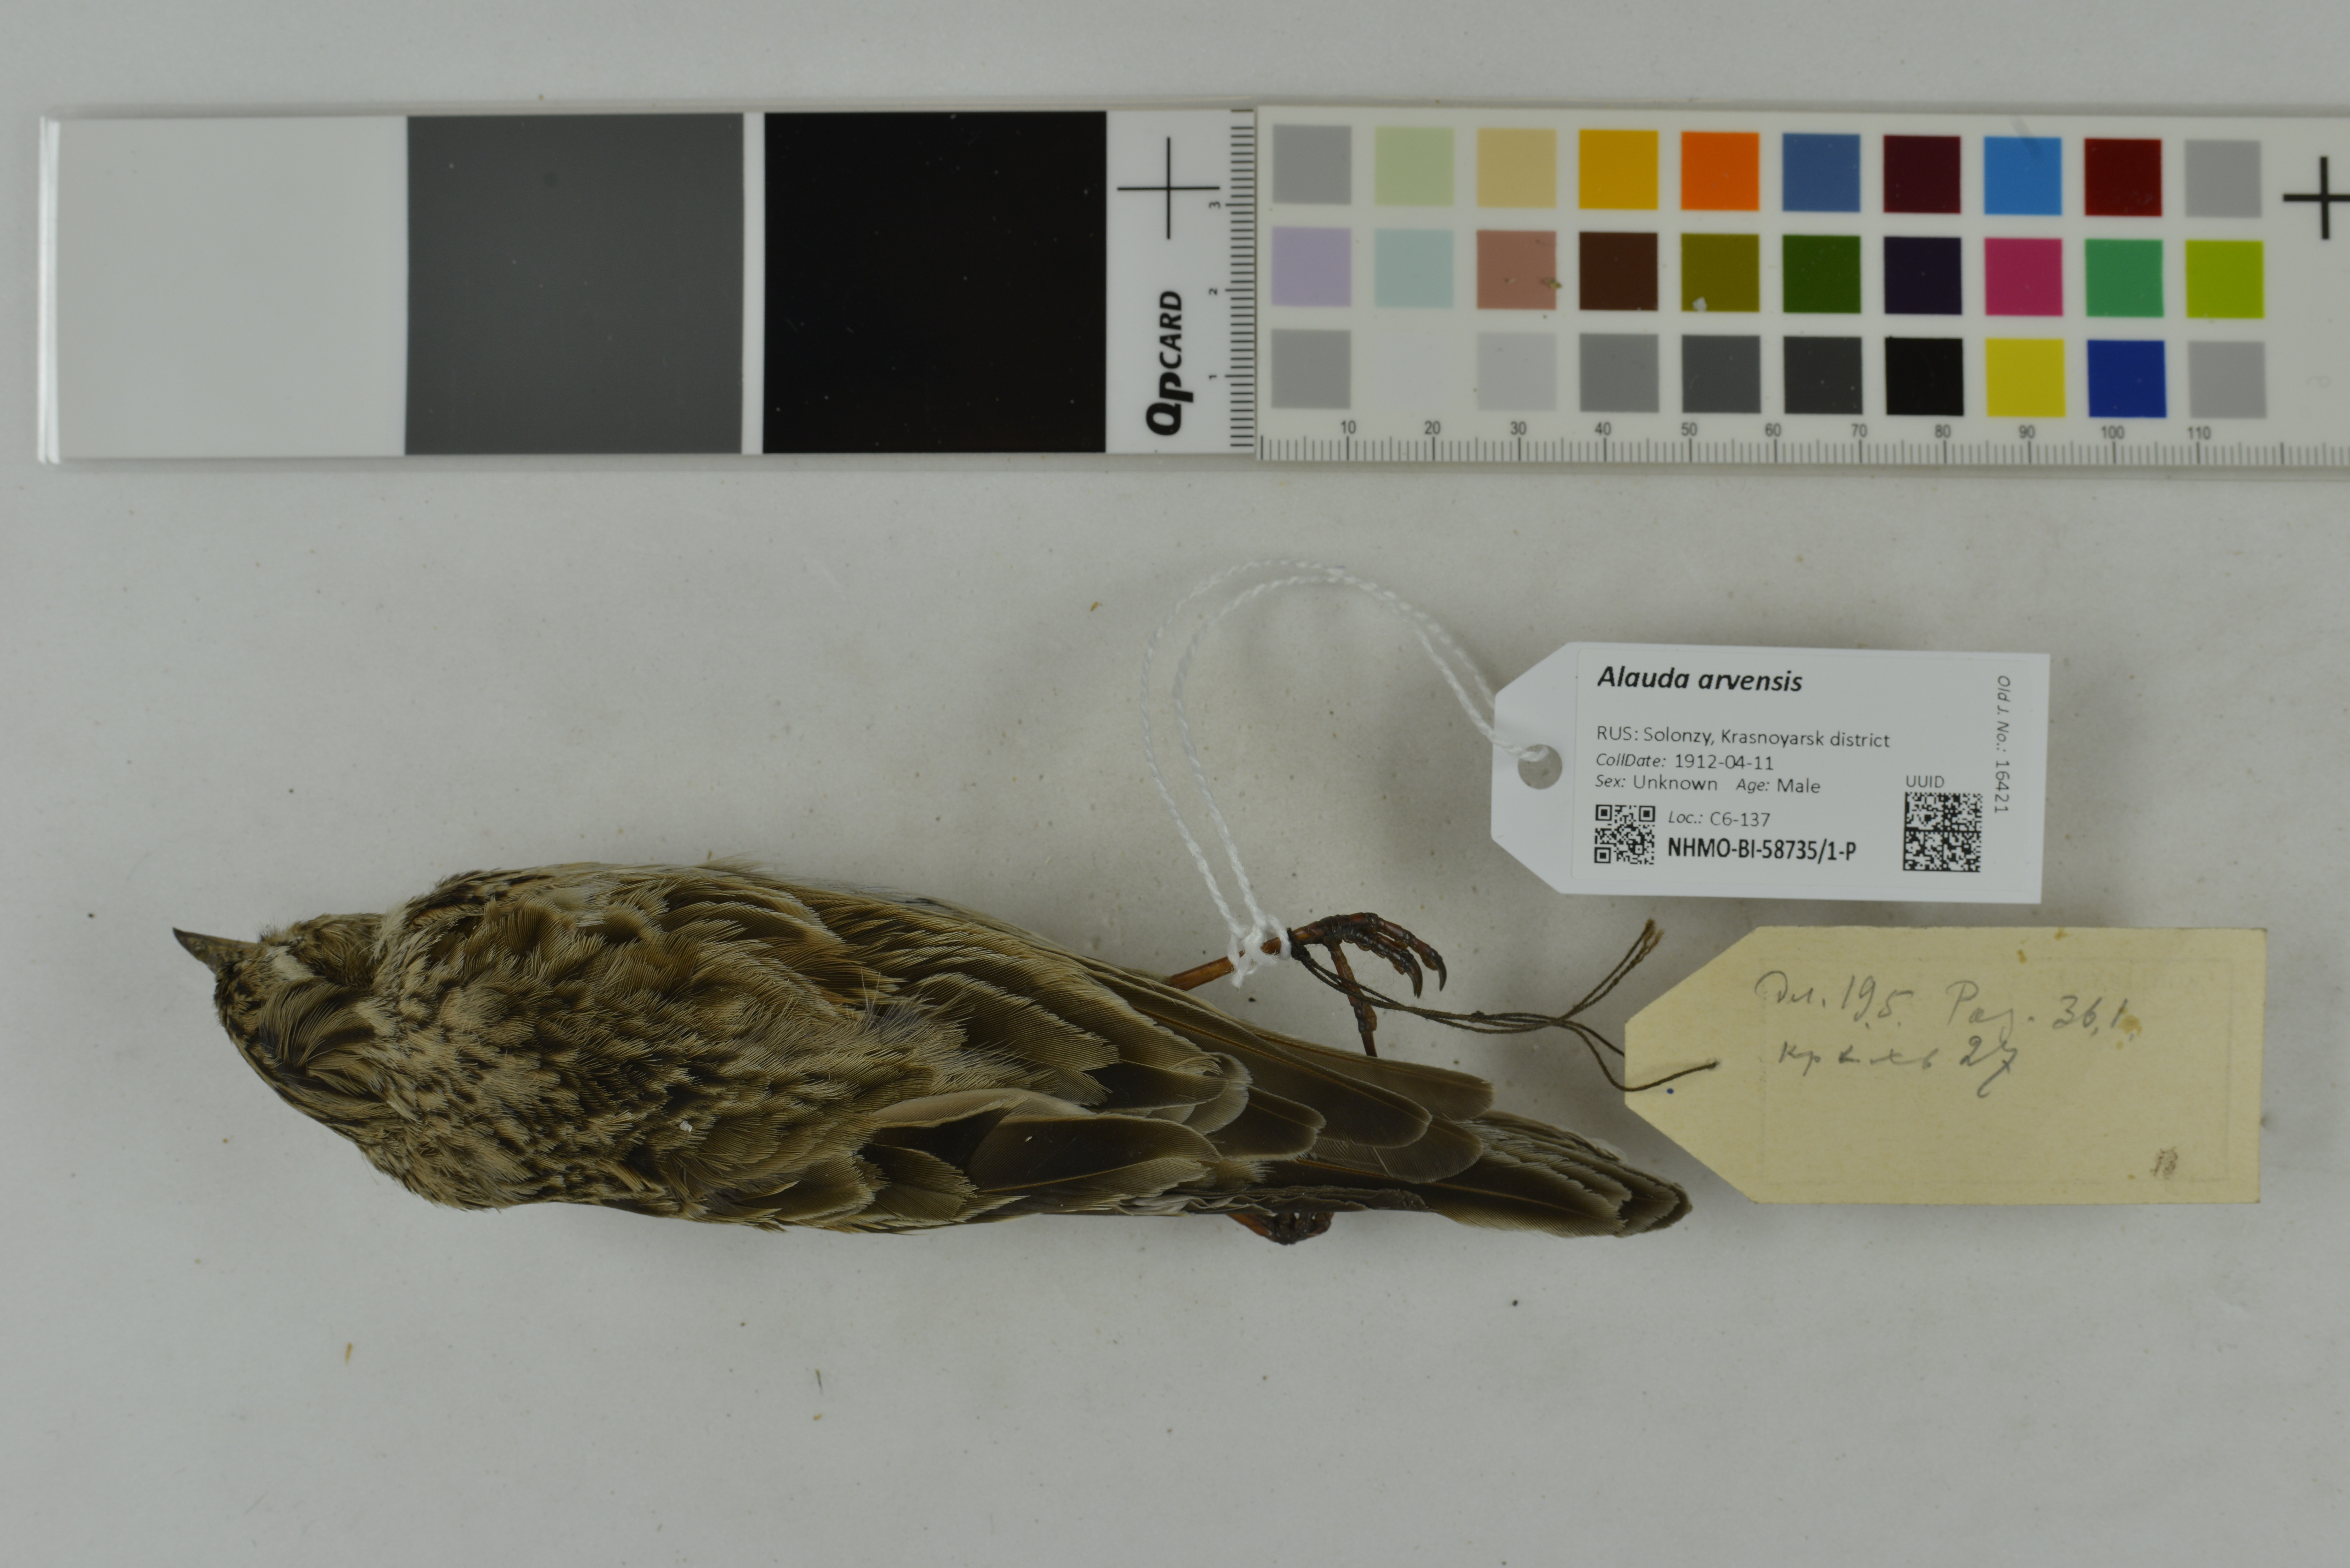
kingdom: Animalia
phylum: Chordata
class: Aves
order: Passeriformes
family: Alaudidae
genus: Alauda
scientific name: Alauda arvensis
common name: Eurasian skylark
